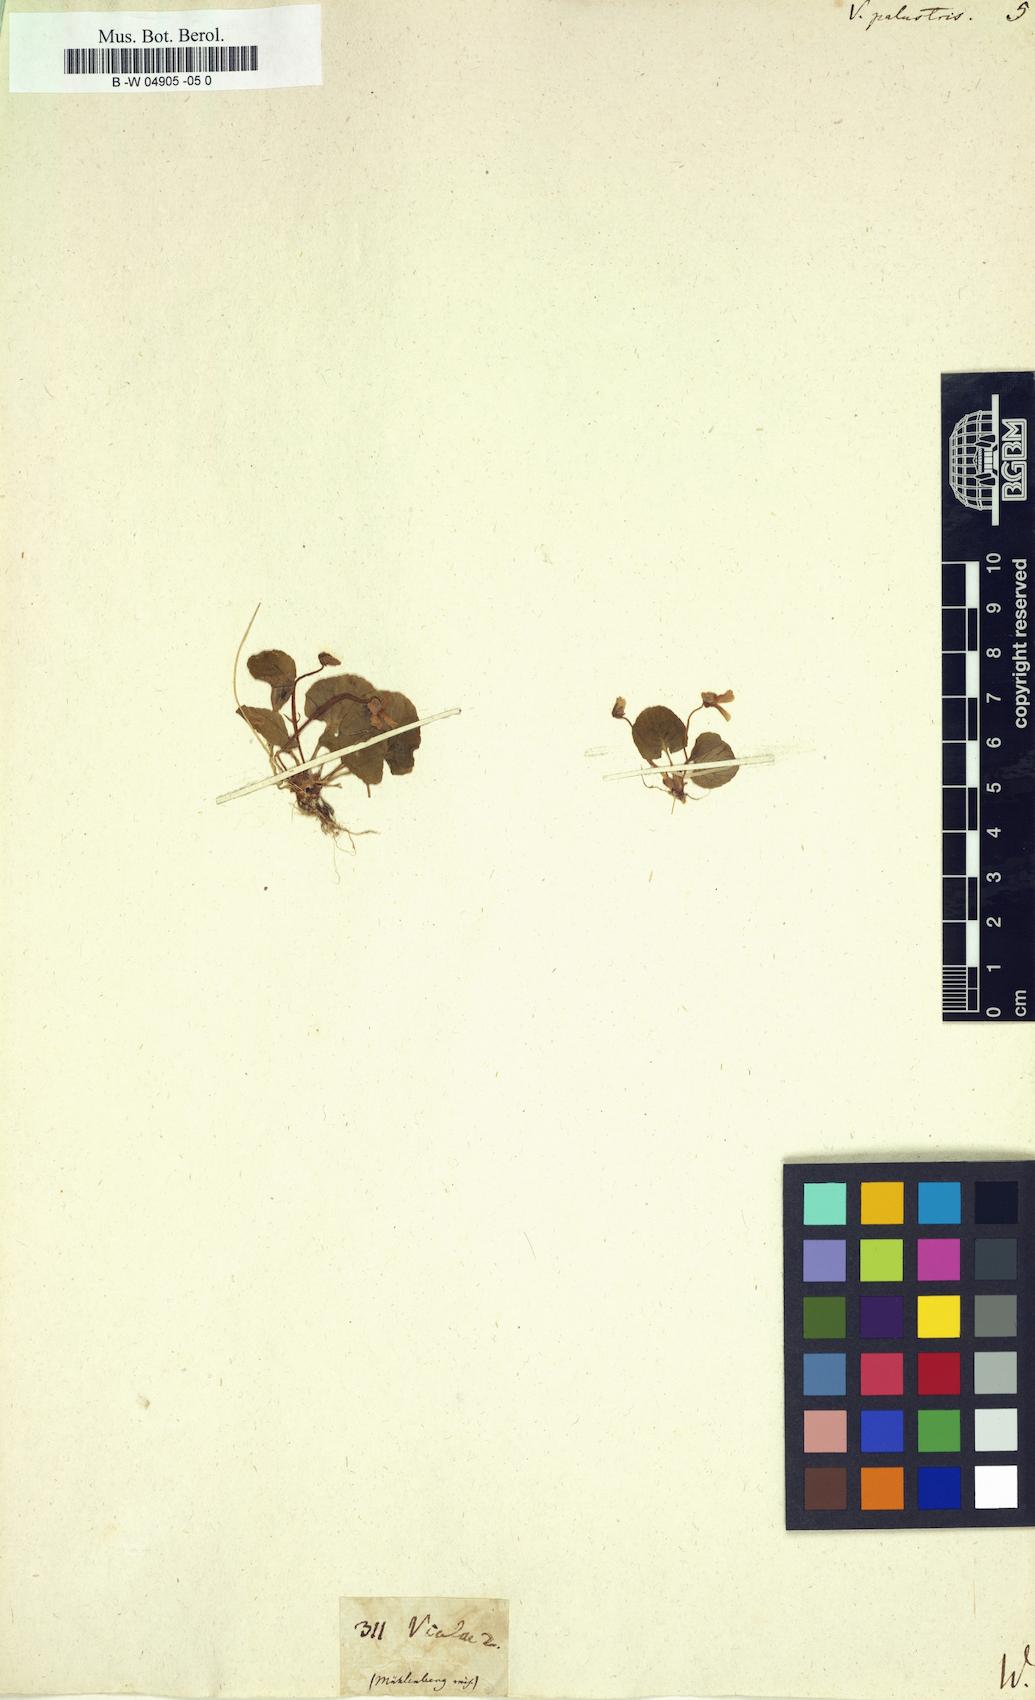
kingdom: Plantae
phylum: Tracheophyta
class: Magnoliopsida
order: Malpighiales
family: Violaceae
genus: Viola
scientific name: Viola palustris
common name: Marsh violet
